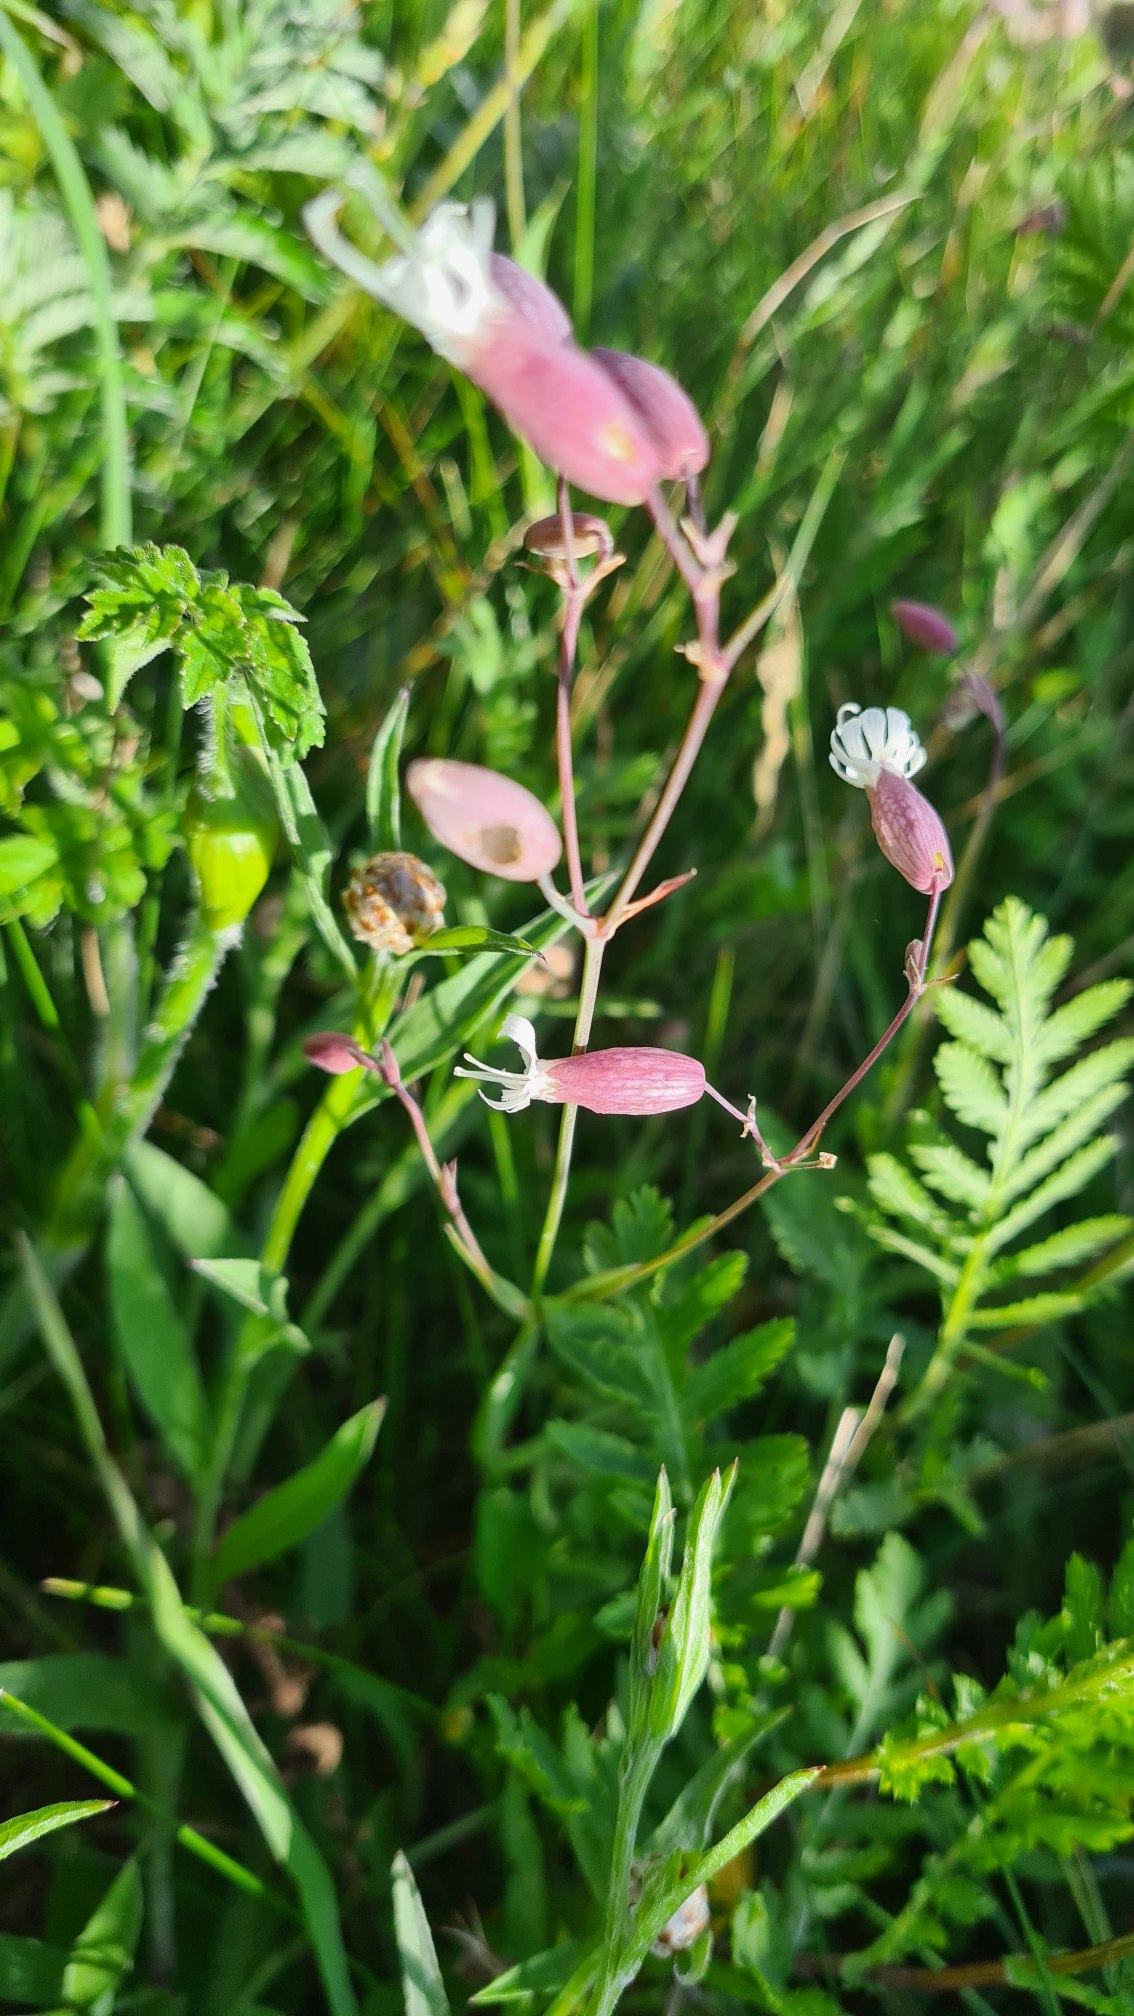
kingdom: Plantae
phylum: Tracheophyta
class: Magnoliopsida
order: Caryophyllales
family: Caryophyllaceae
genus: Silene
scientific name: Silene vulgaris
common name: Blæresmælde
